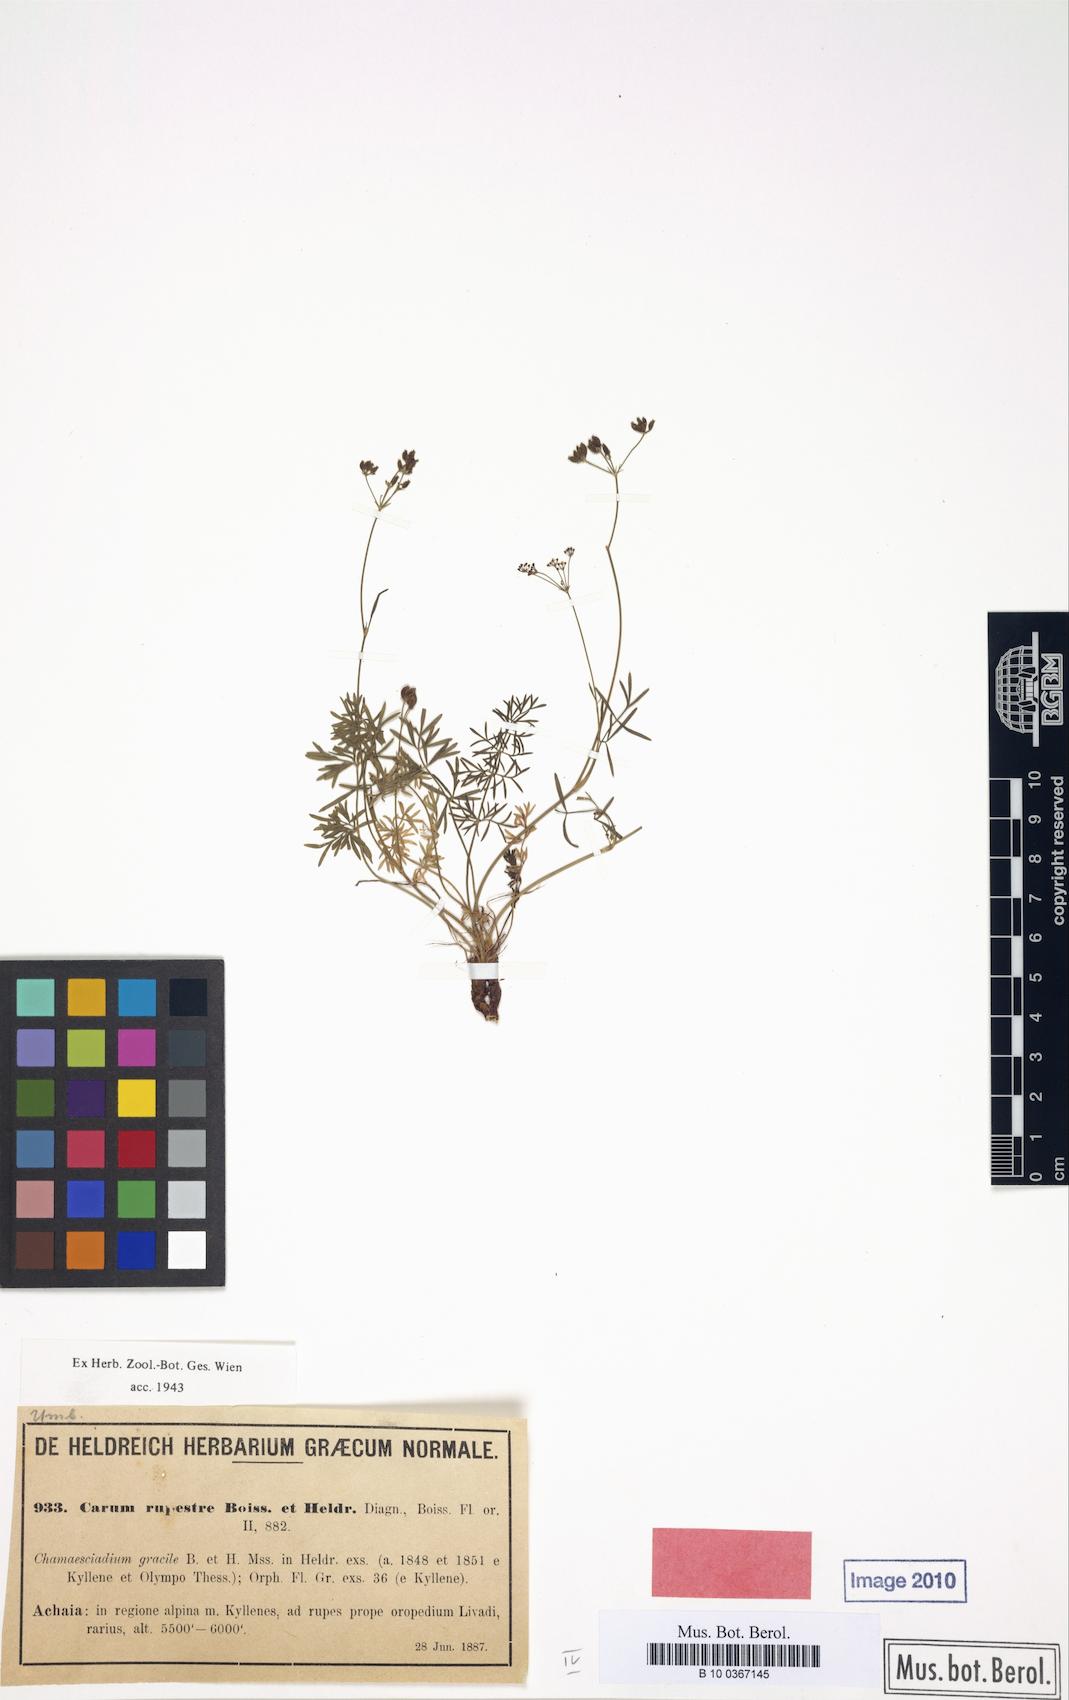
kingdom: Plantae
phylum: Tracheophyta
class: Magnoliopsida
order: Apiales
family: Apiaceae
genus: Carum
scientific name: Carum heldreichii
